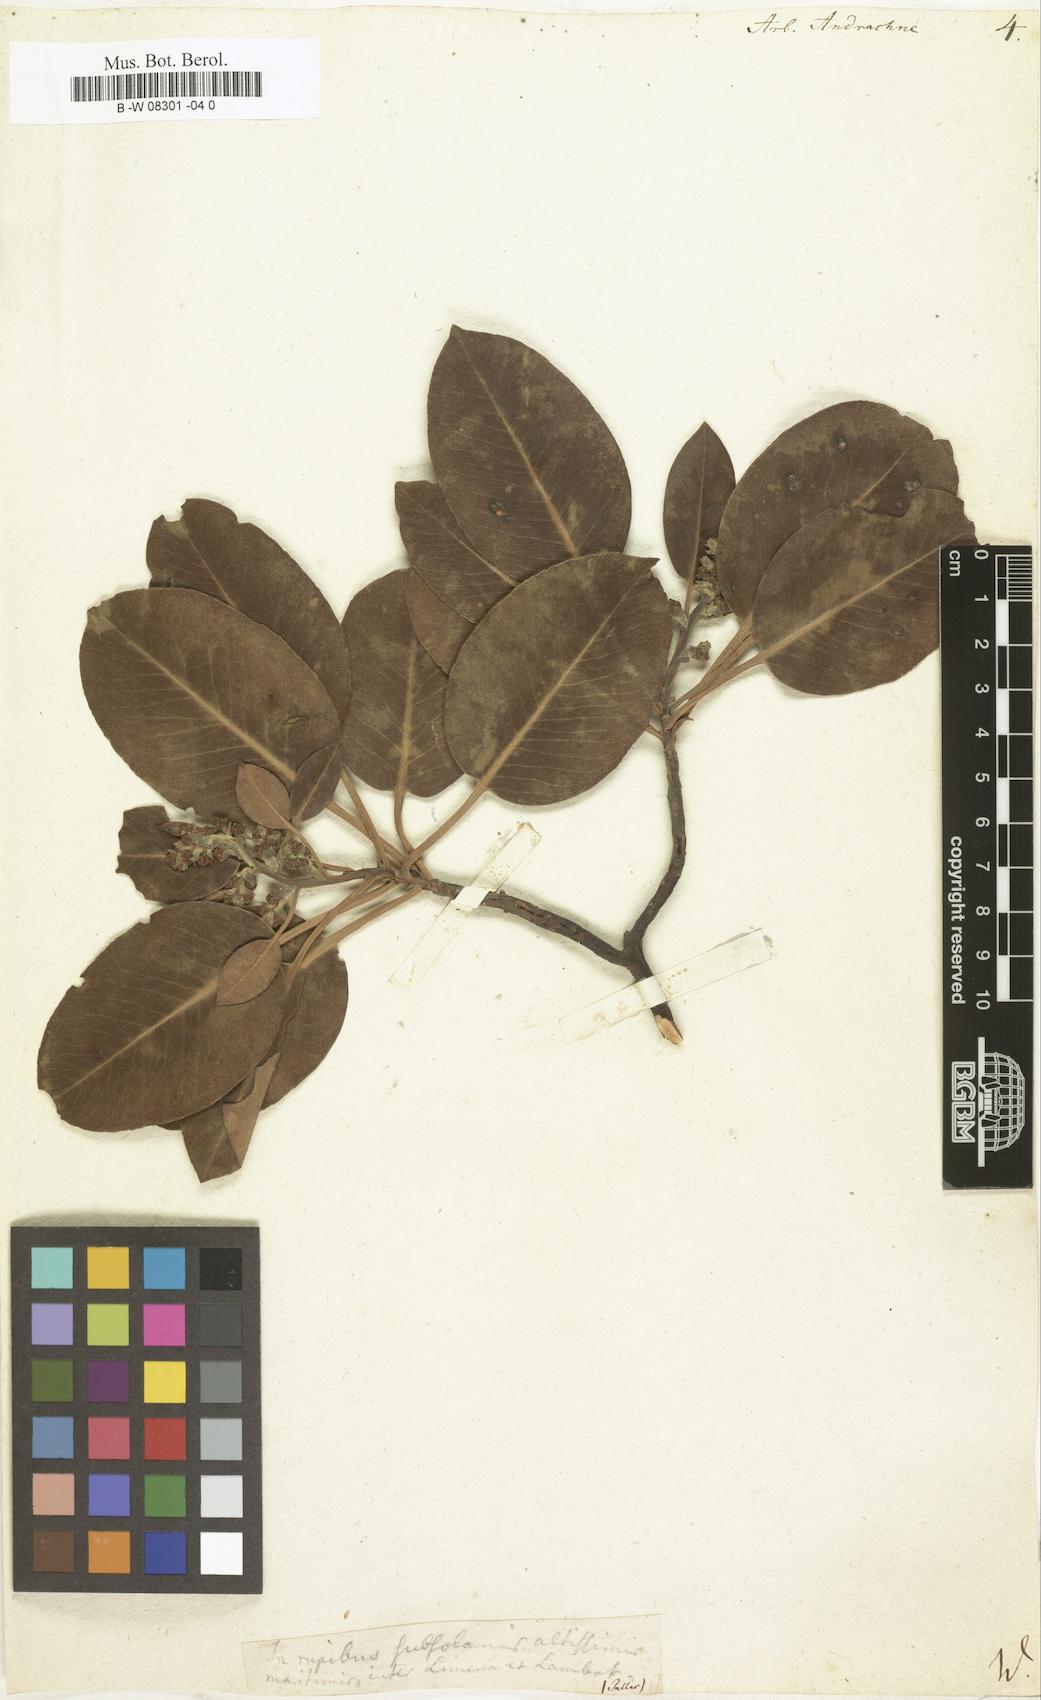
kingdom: Plantae
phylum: Tracheophyta
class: Magnoliopsida
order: Ericales
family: Ericaceae
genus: Arbutus
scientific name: Arbutus andrachne
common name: Greek strawberry tree
